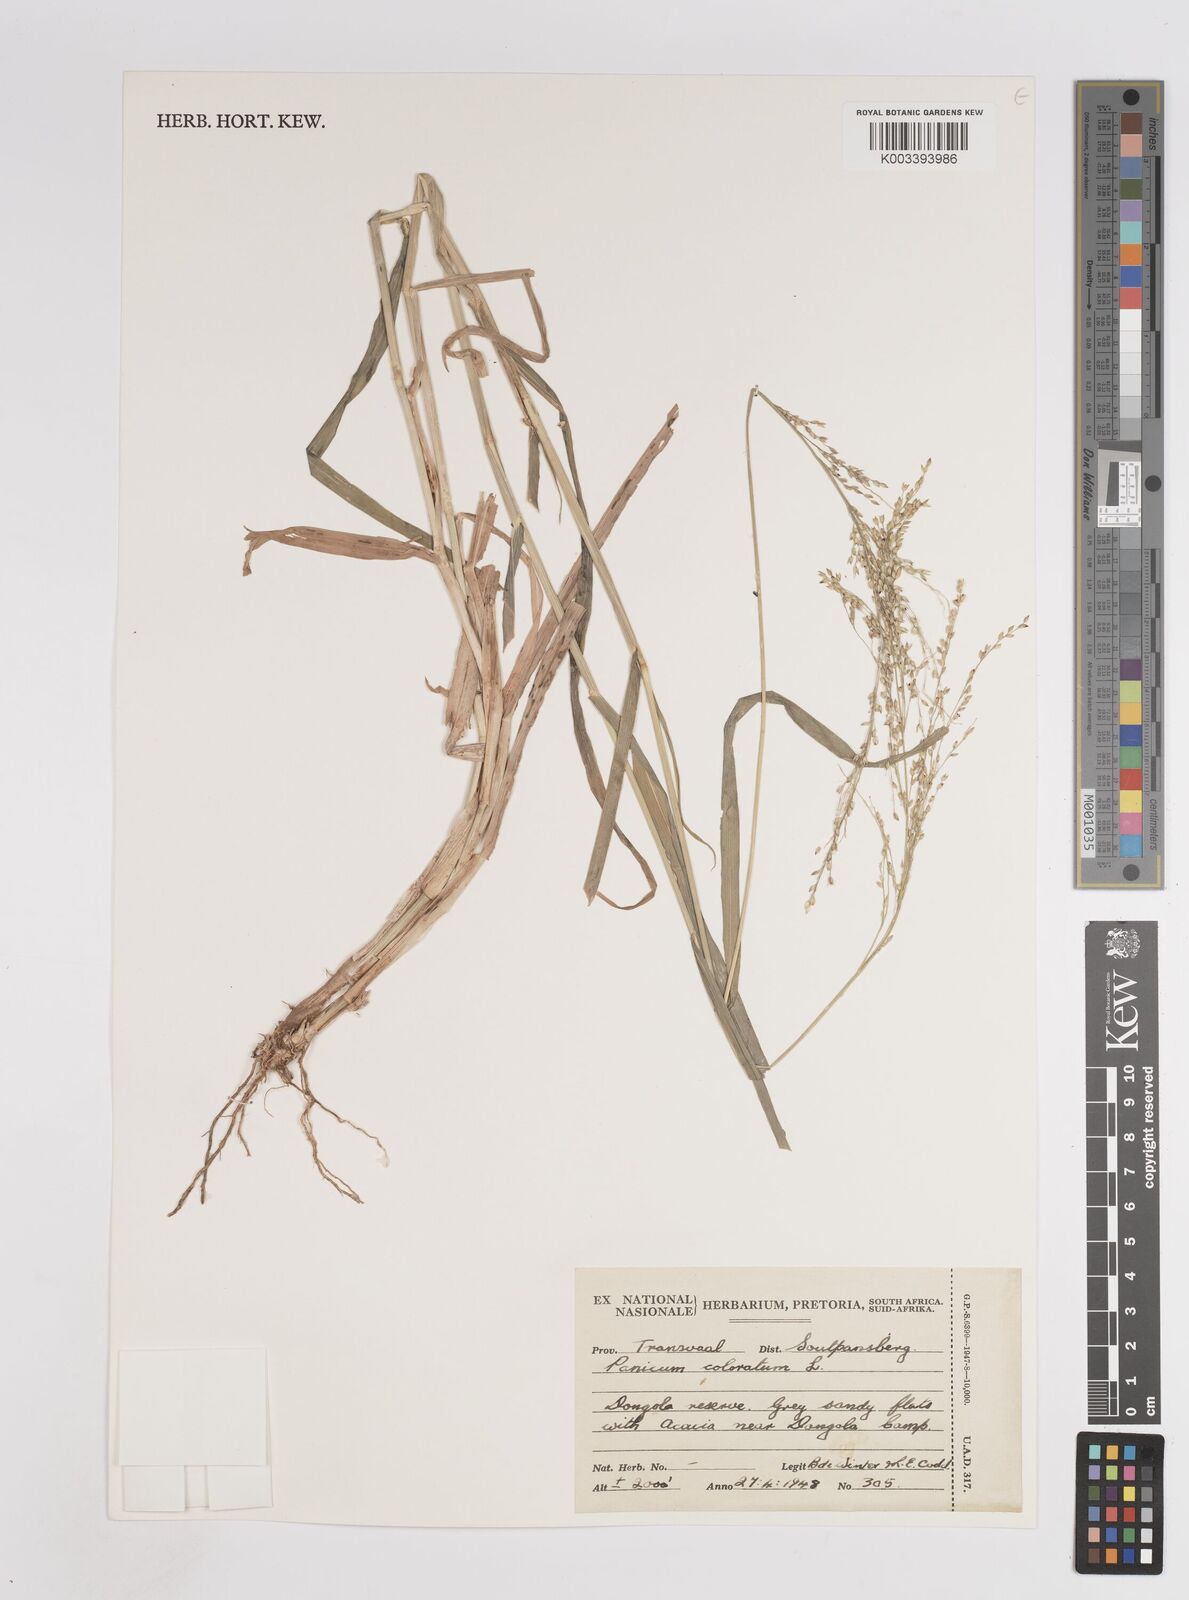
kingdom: Plantae
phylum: Tracheophyta
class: Liliopsida
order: Poales
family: Poaceae
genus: Panicum
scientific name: Panicum coloratum
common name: Kleingrass
